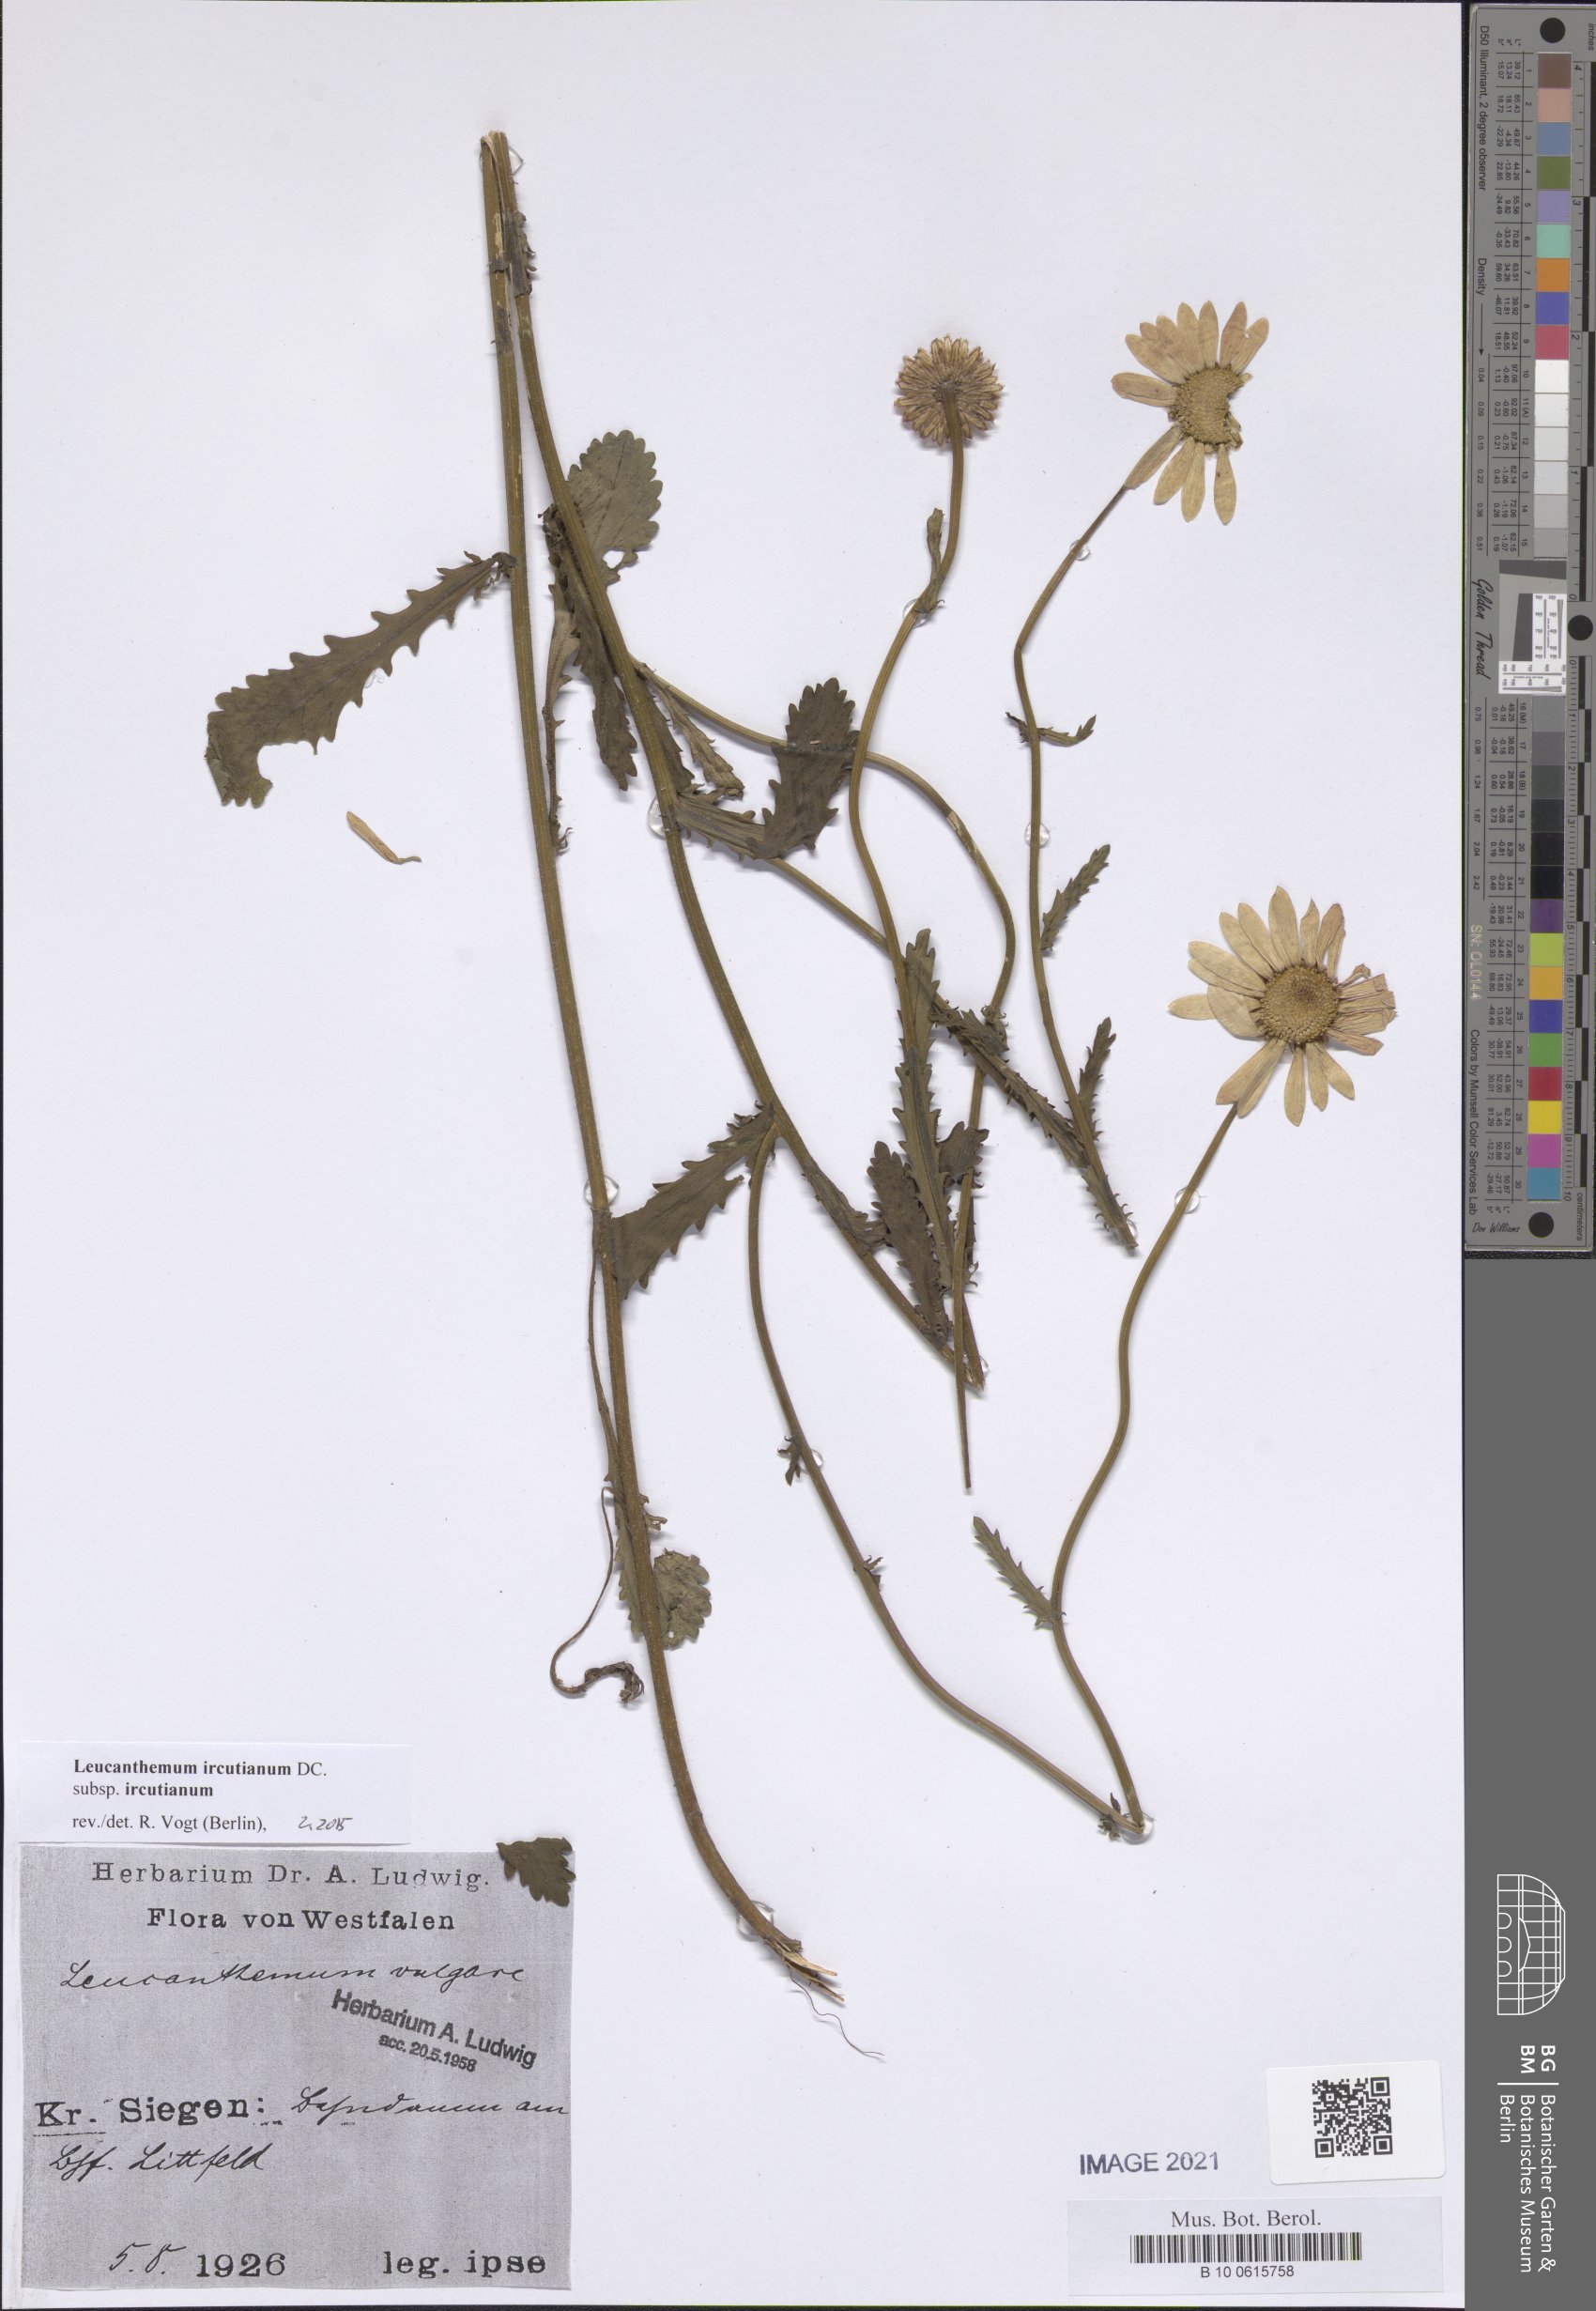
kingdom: Plantae
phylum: Tracheophyta
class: Magnoliopsida
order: Asterales
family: Asteraceae
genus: Leucanthemum
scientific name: Leucanthemum ircutianum
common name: Daisy
